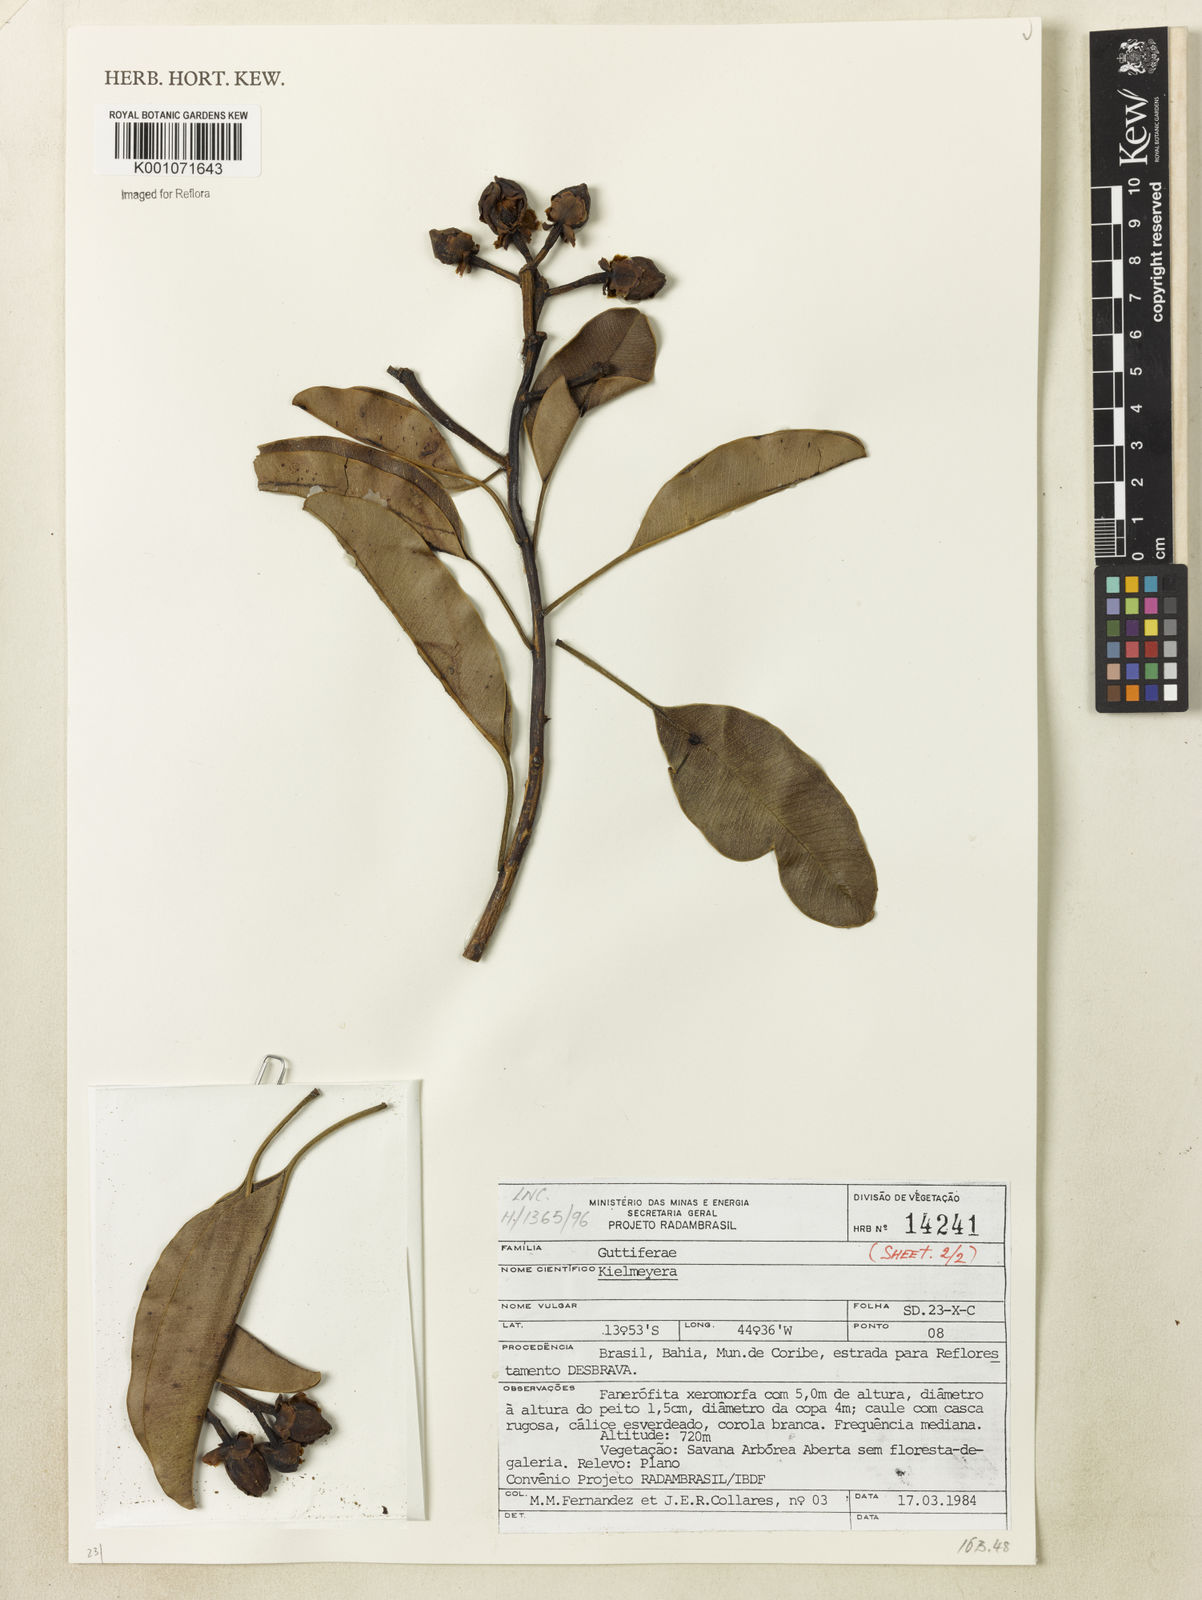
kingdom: Plantae
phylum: Tracheophyta
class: Magnoliopsida
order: Malpighiales
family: Calophyllaceae
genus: Kielmeyera
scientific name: Kielmeyera
